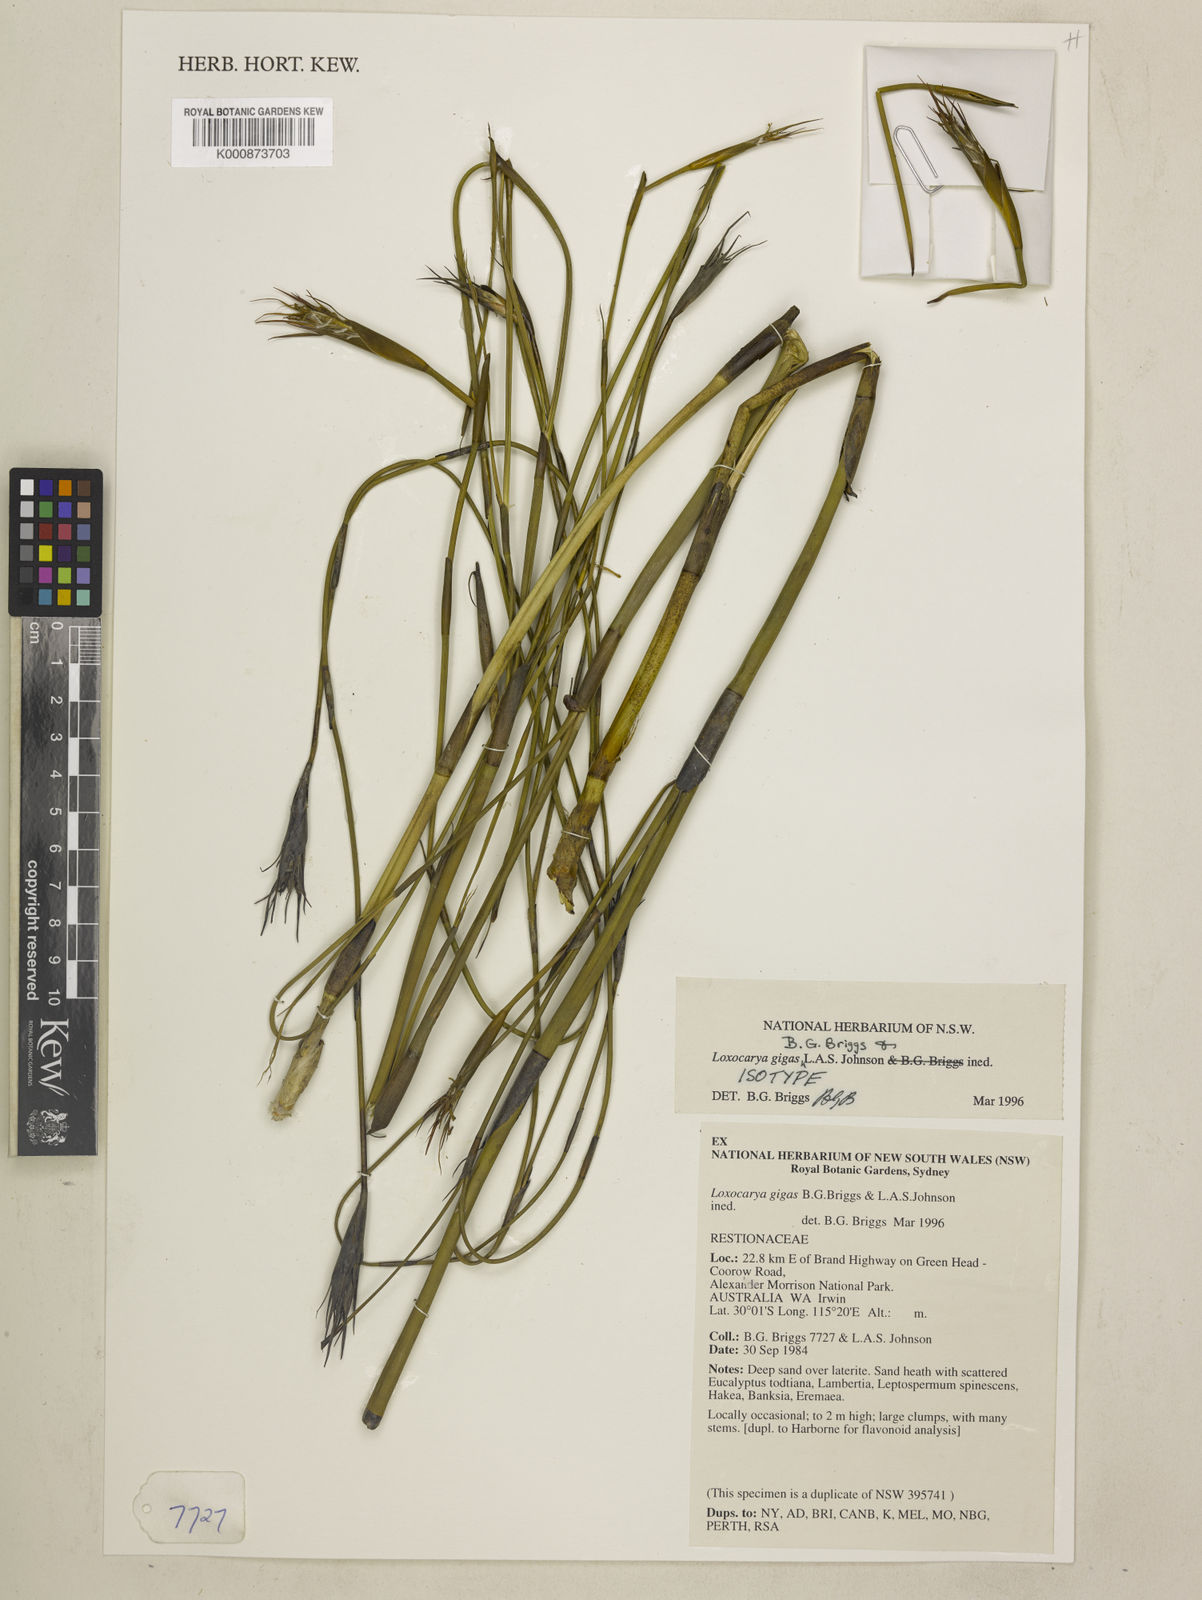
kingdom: Plantae
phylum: Tracheophyta
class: Liliopsida
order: Poales
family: Restionaceae
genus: Loxocarya
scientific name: Loxocarya gigas
